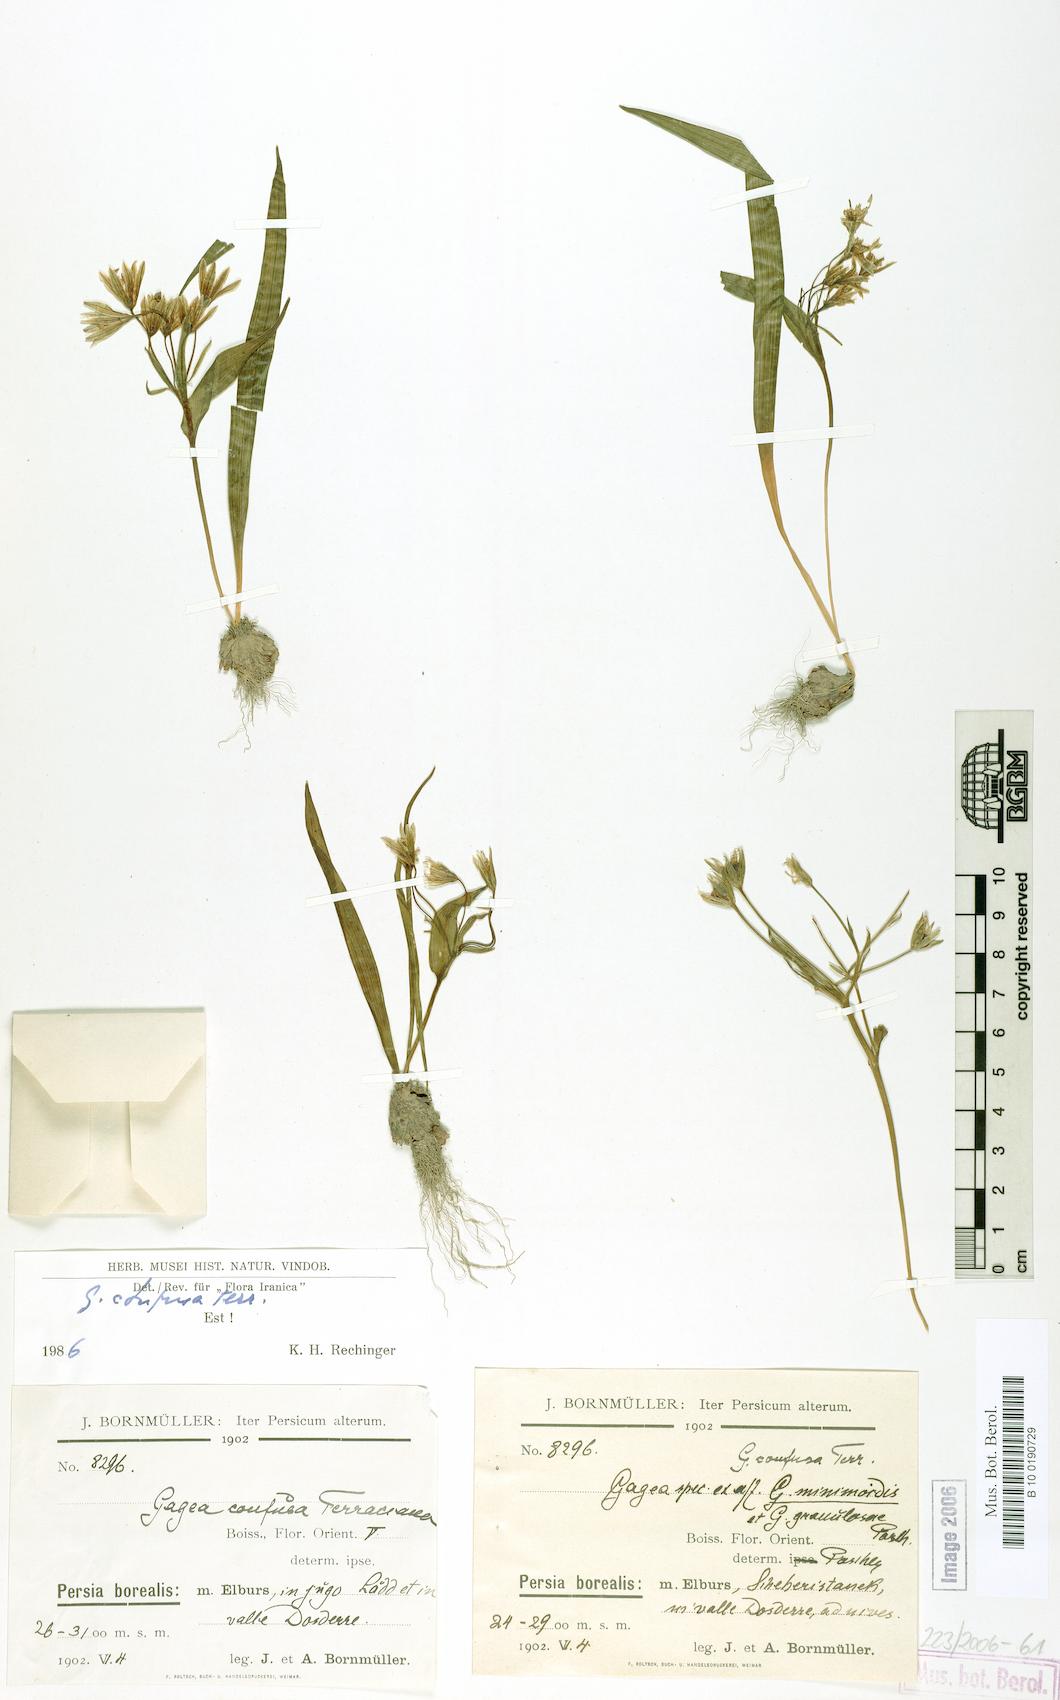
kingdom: Plantae
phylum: Tracheophyta
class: Liliopsida
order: Liliales
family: Liliaceae
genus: Gagea
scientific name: Gagea confusa
